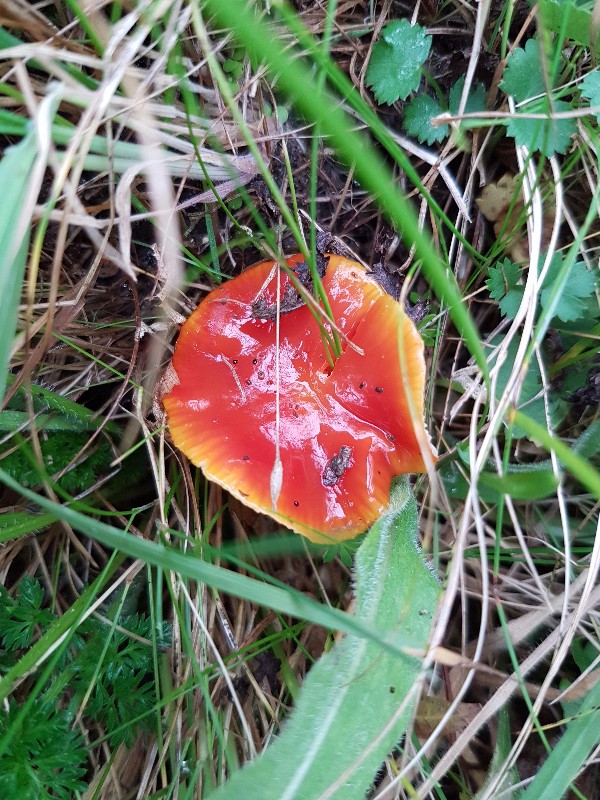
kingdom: Fungi
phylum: Basidiomycota
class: Agaricomycetes
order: Agaricales
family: Hygrophoraceae
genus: Hygrocybe
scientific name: Hygrocybe
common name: vokshat
